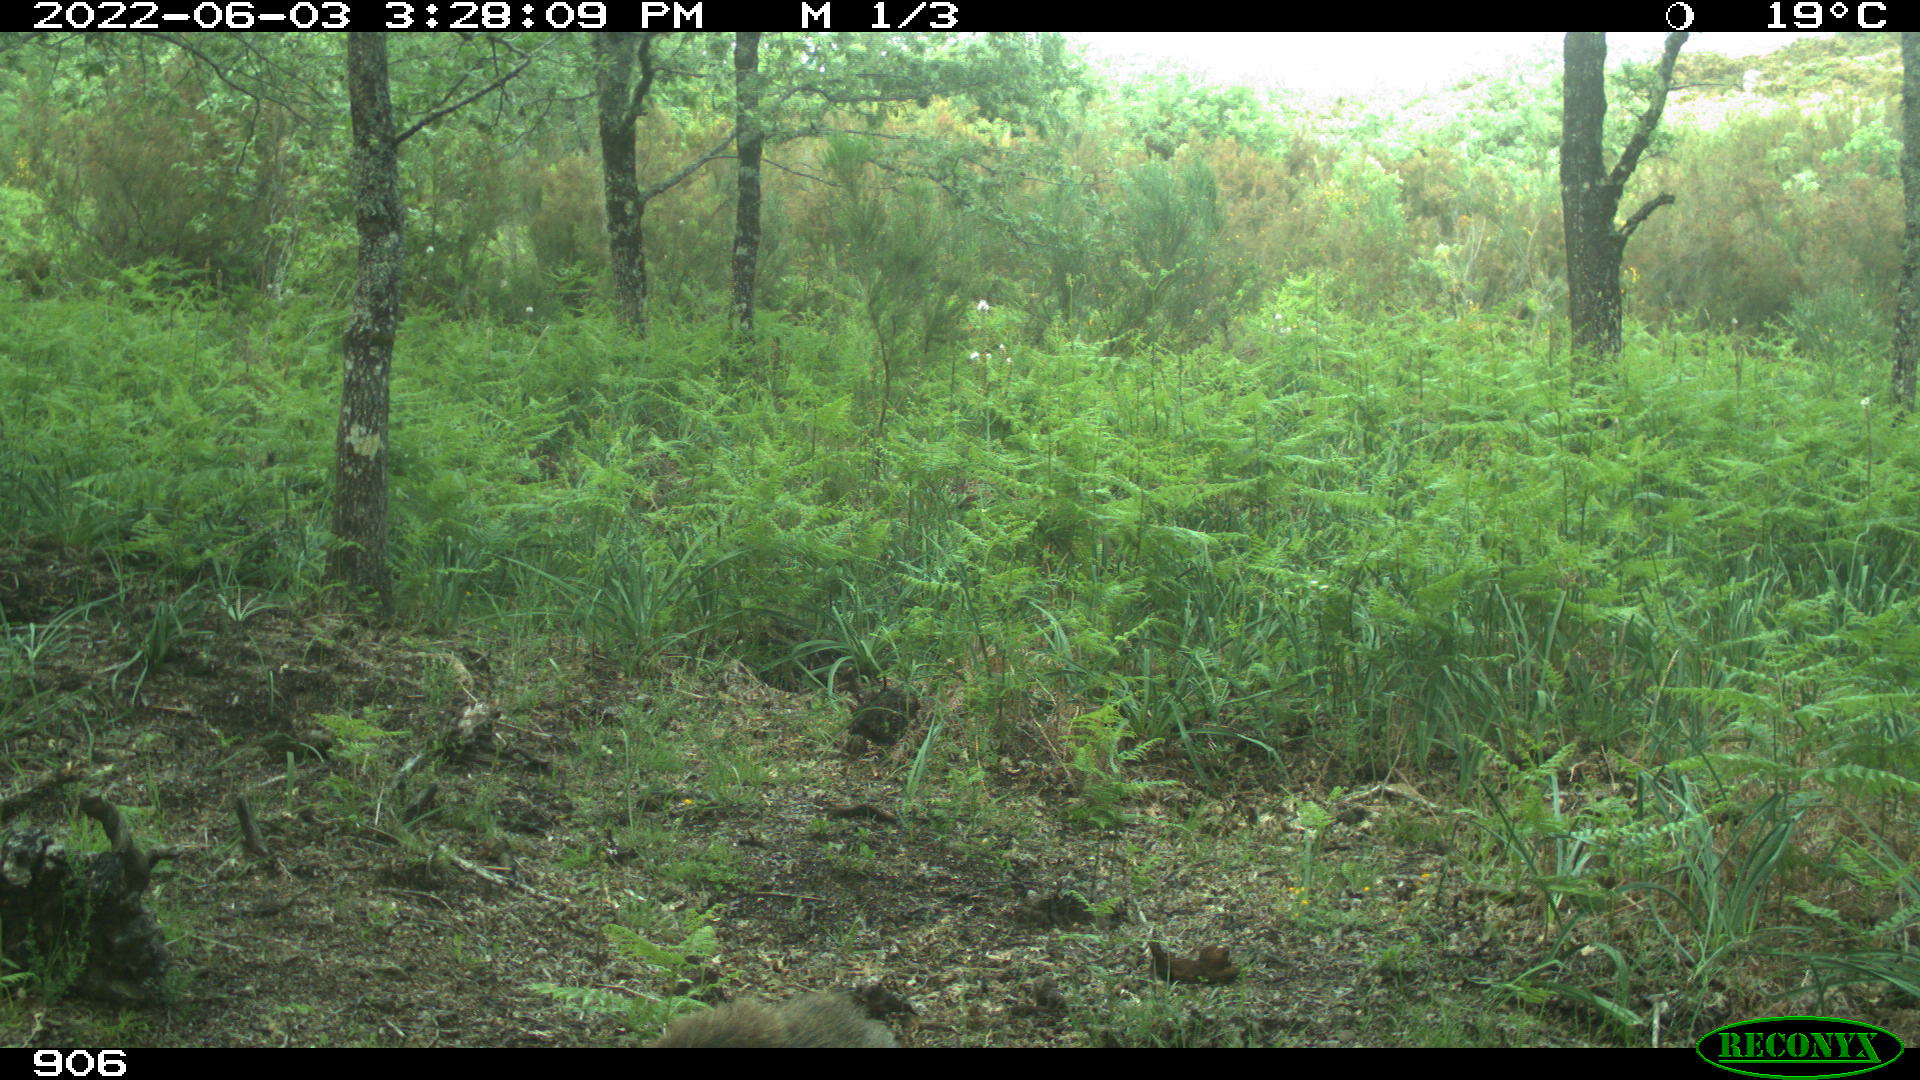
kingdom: Animalia
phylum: Chordata
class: Mammalia
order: Artiodactyla
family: Suidae
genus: Sus
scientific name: Sus scrofa
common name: Wild boar
